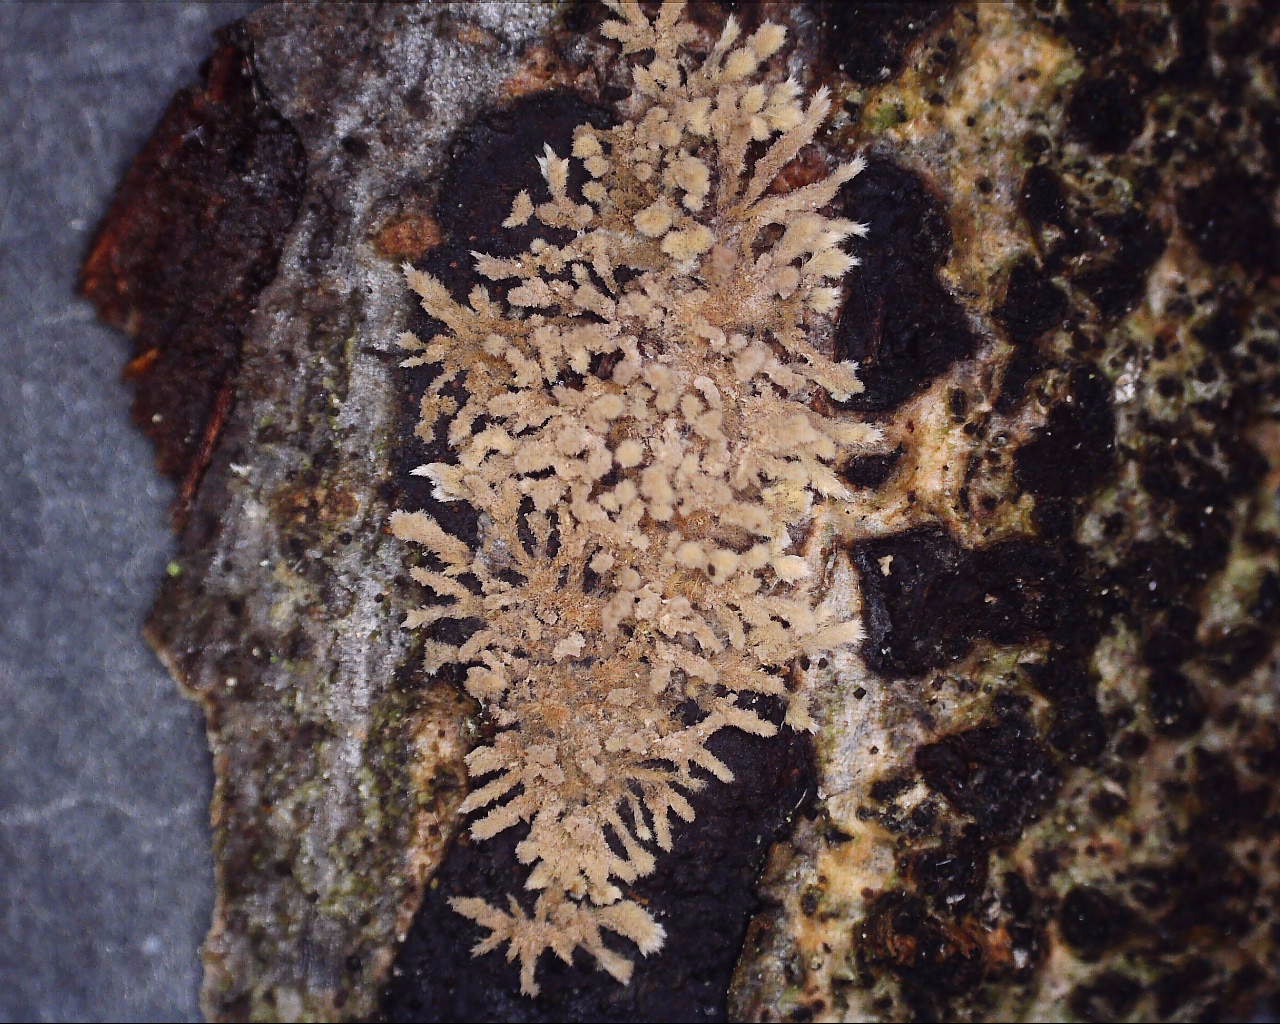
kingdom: Fungi
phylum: Ascomycota
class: Sordariomycetes
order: Xylariales
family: Hypoxylaceae
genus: Hypoxylon
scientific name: Hypoxylon howeanum
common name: halvkugleformet kulbær
